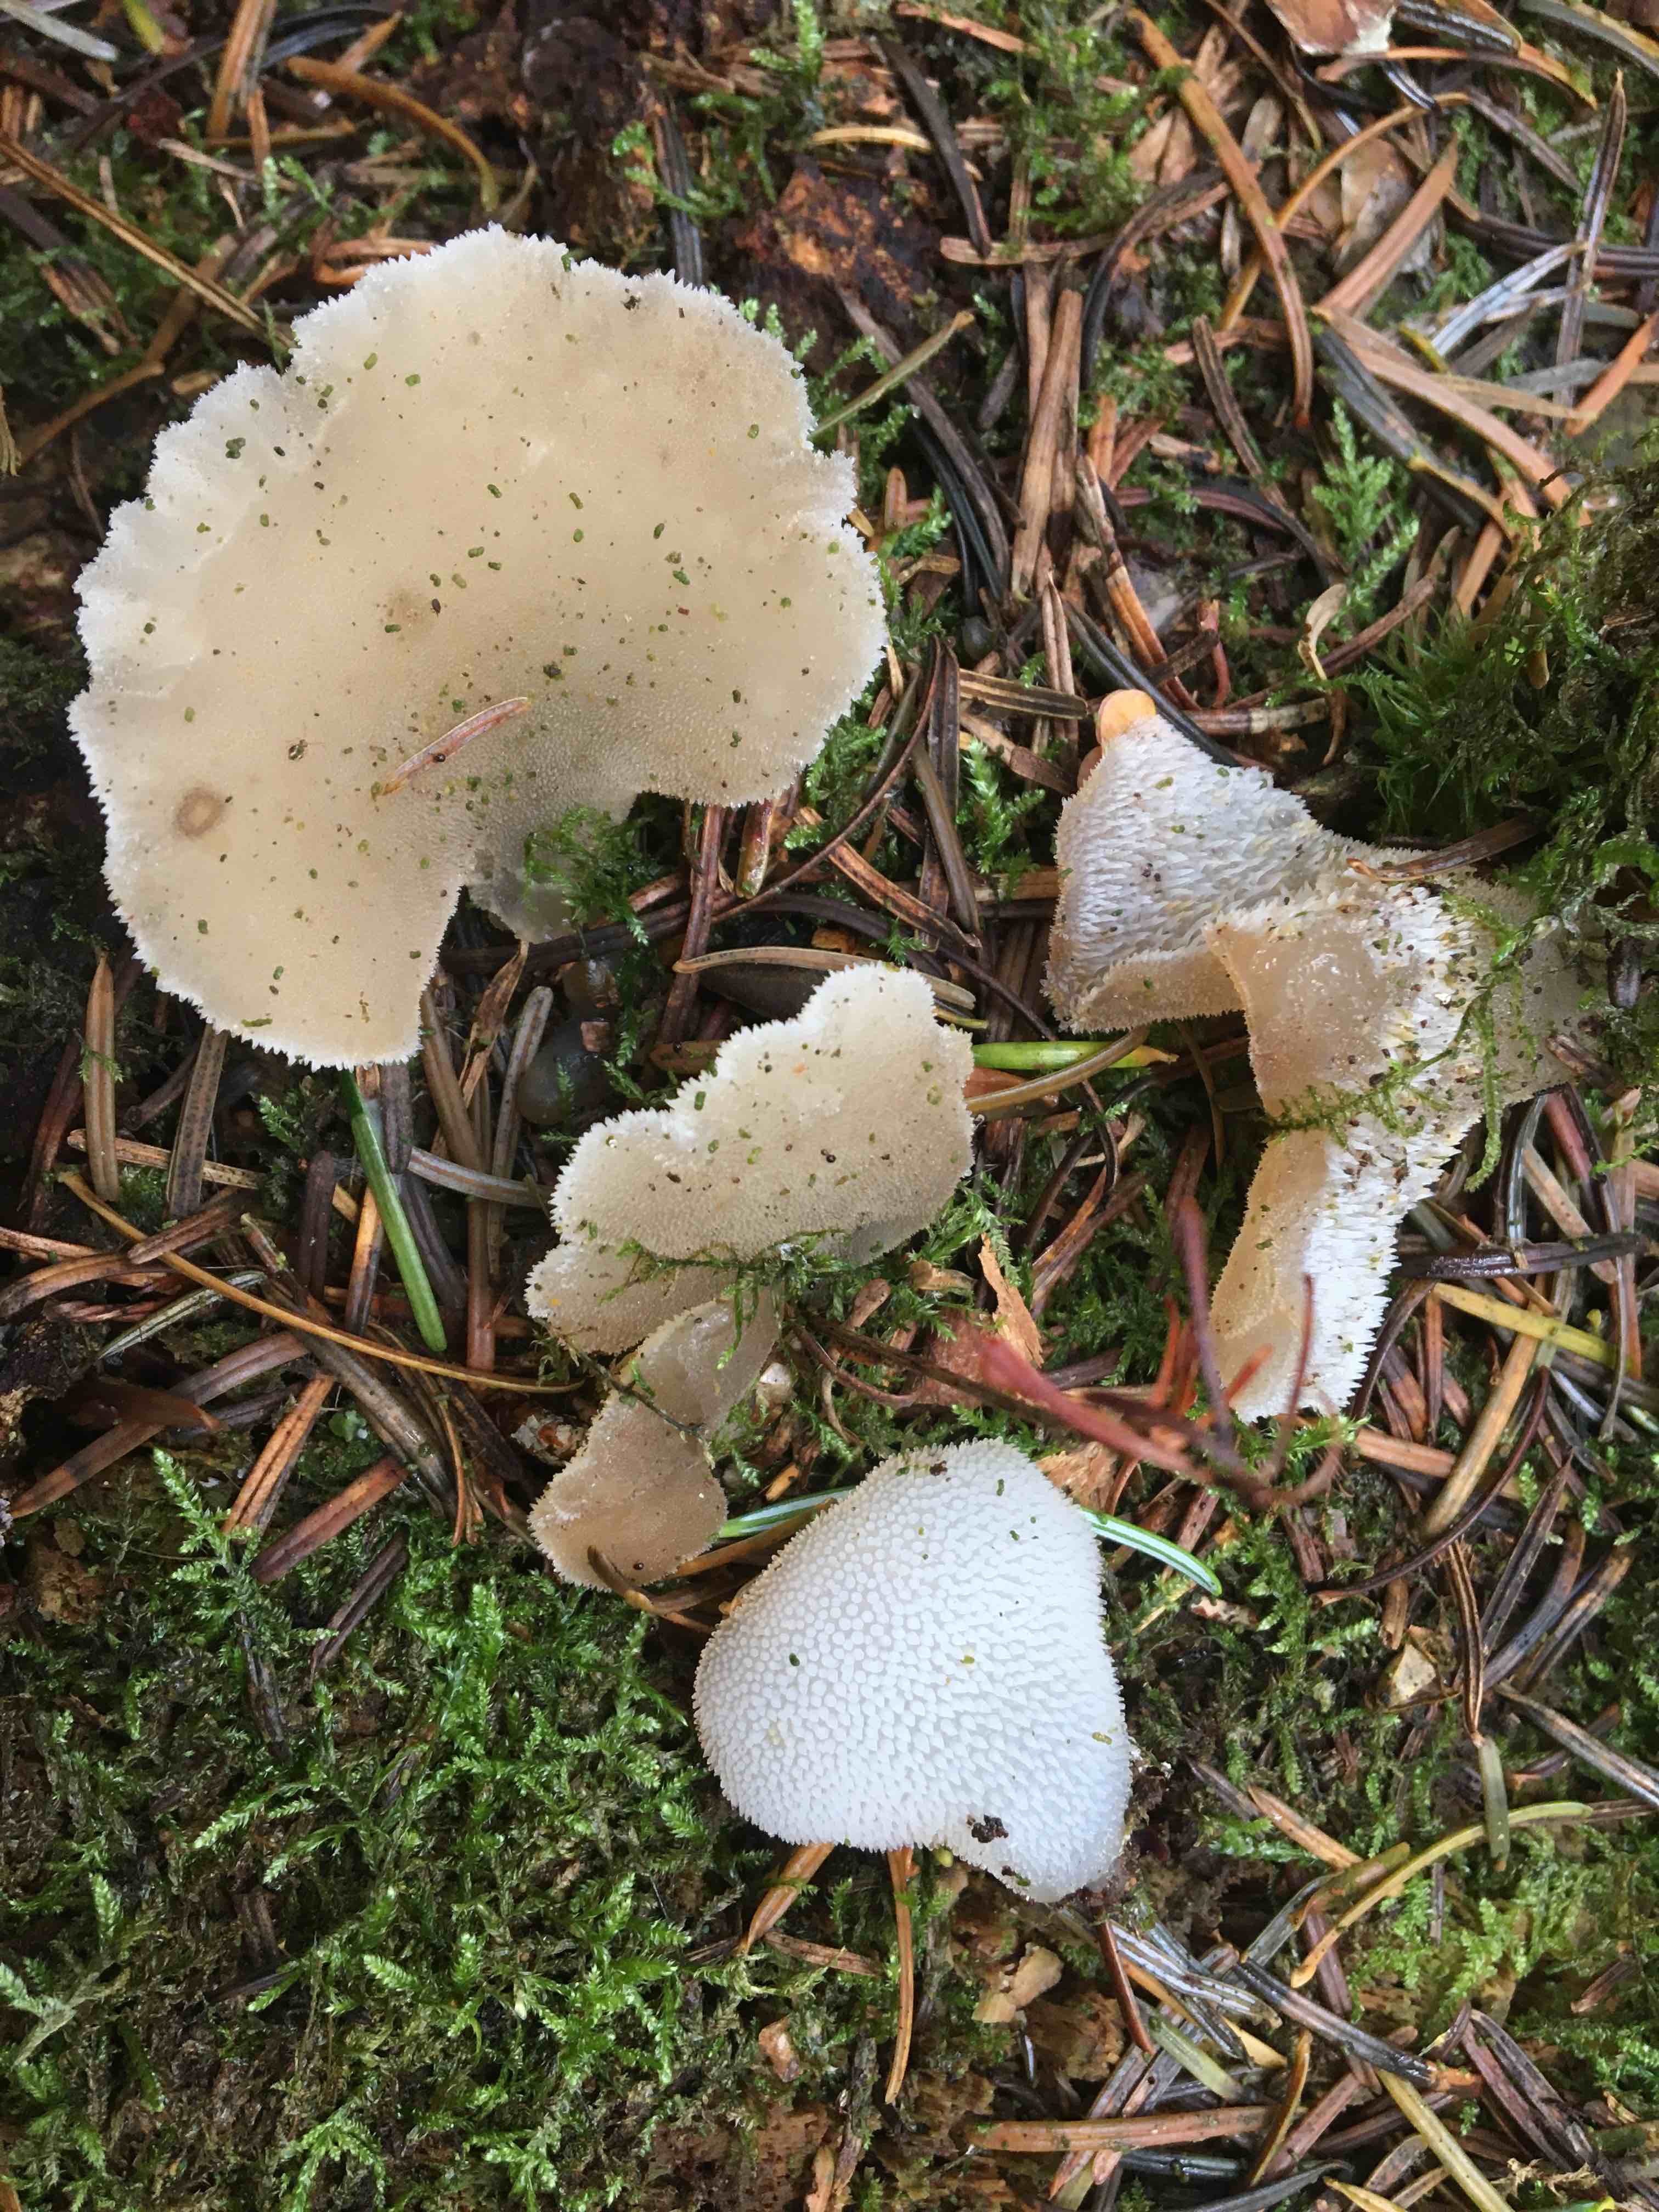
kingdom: Fungi
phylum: Basidiomycota
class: Agaricomycetes
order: Auriculariales
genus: Pseudohydnum
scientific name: Pseudohydnum gelatinosum
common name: bævretand
